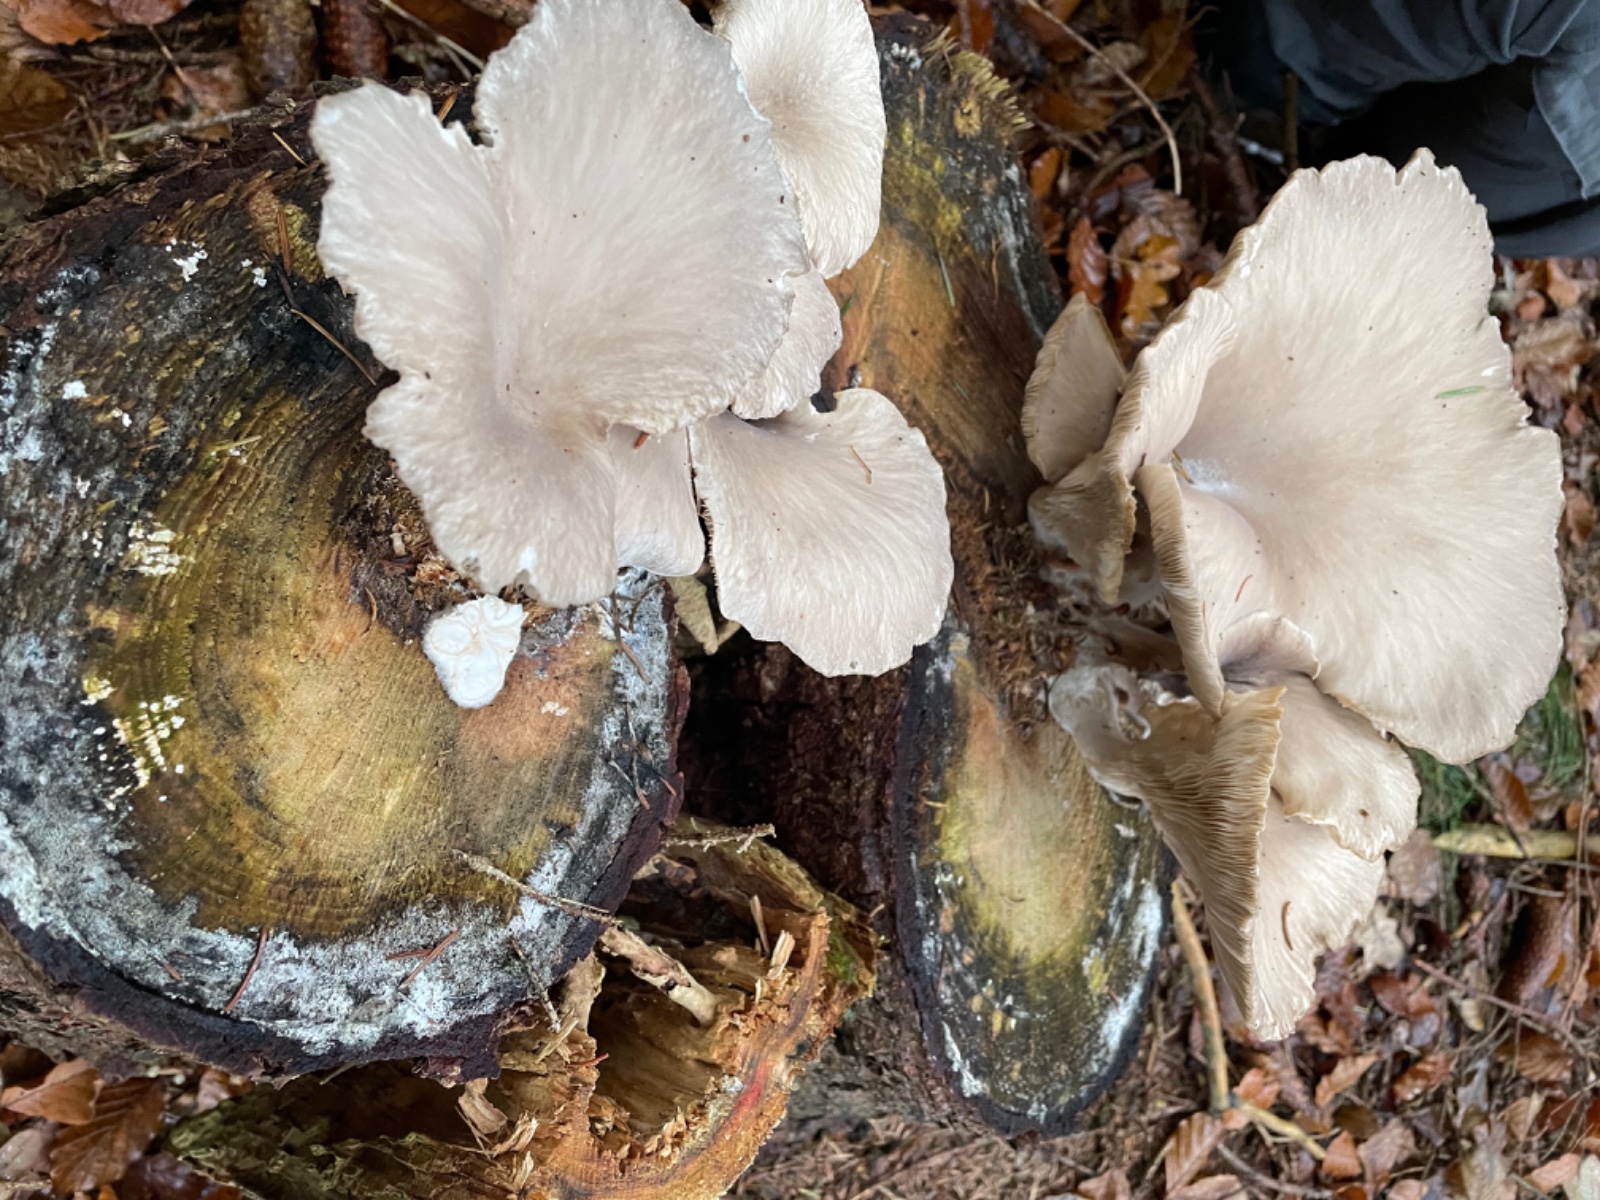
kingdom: Fungi
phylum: Basidiomycota
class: Agaricomycetes
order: Agaricales
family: Pleurotaceae
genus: Pleurotus
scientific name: Pleurotus ostreatus
